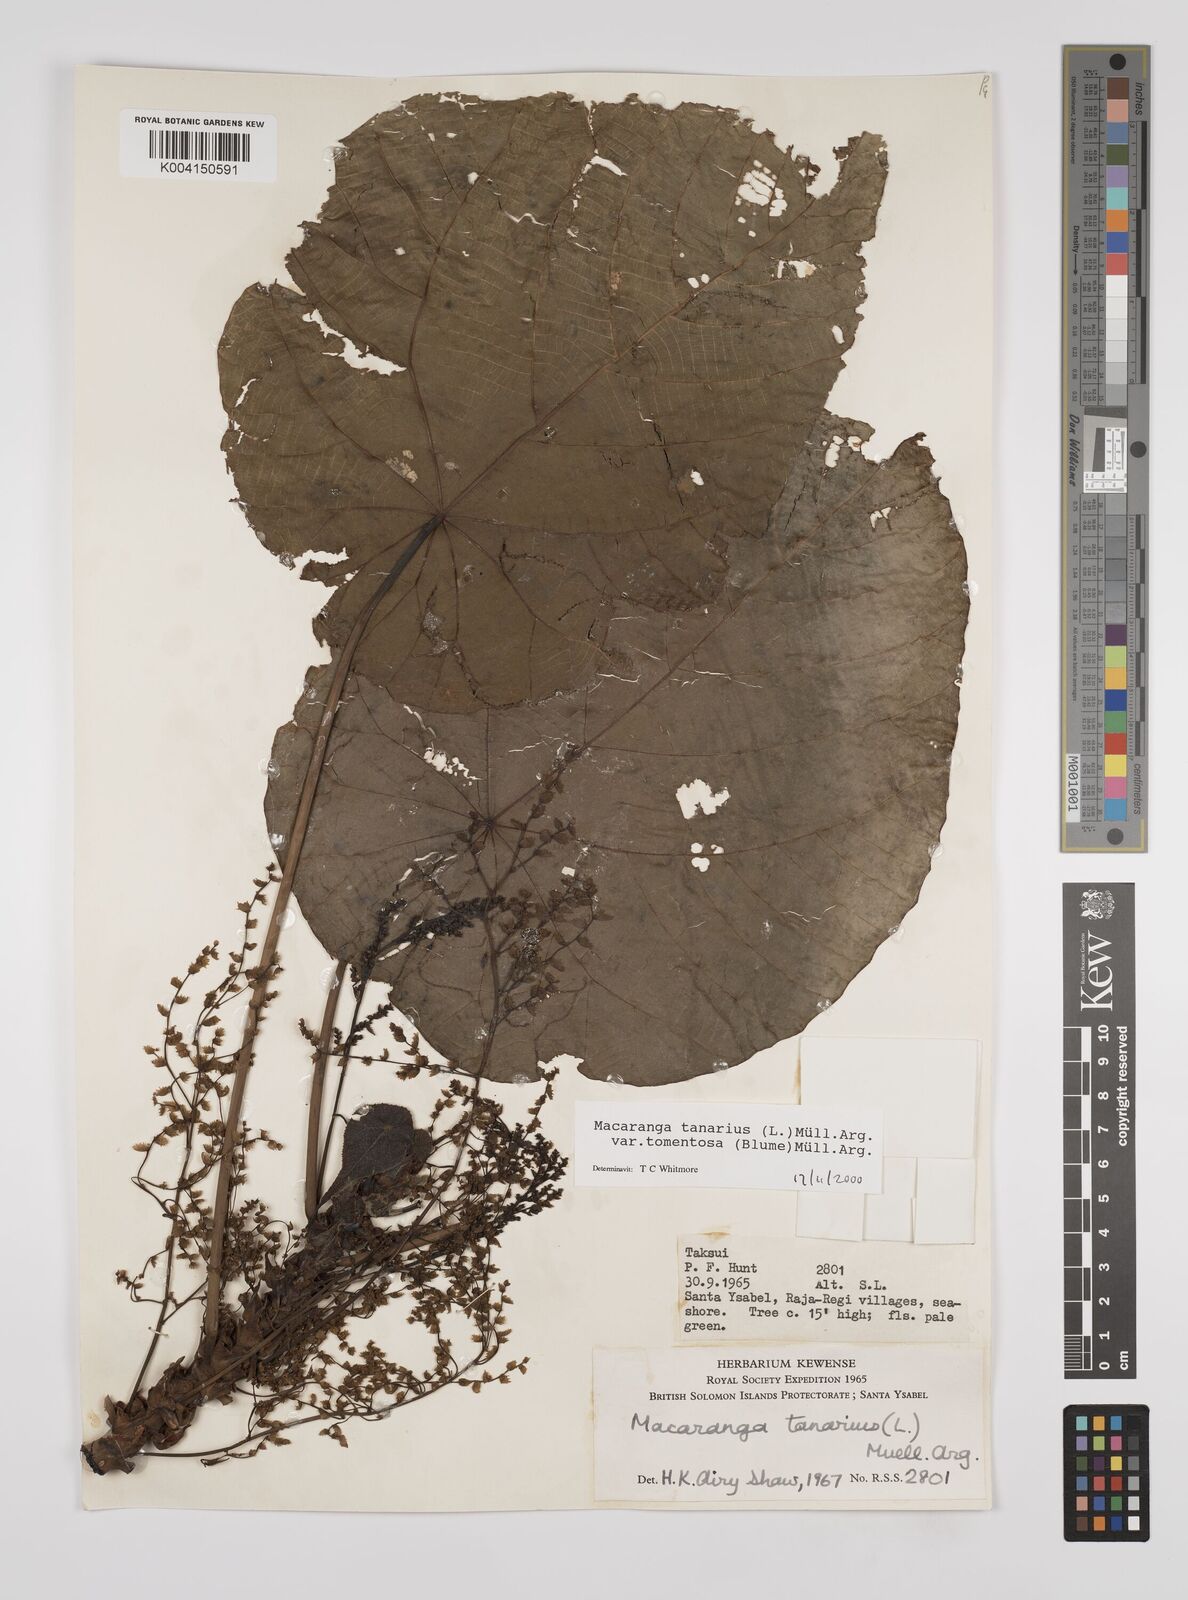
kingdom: Plantae
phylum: Tracheophyta
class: Magnoliopsida
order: Malpighiales
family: Euphorbiaceae
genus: Macaranga
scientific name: Macaranga tanarius
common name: Parasol leaf tree
